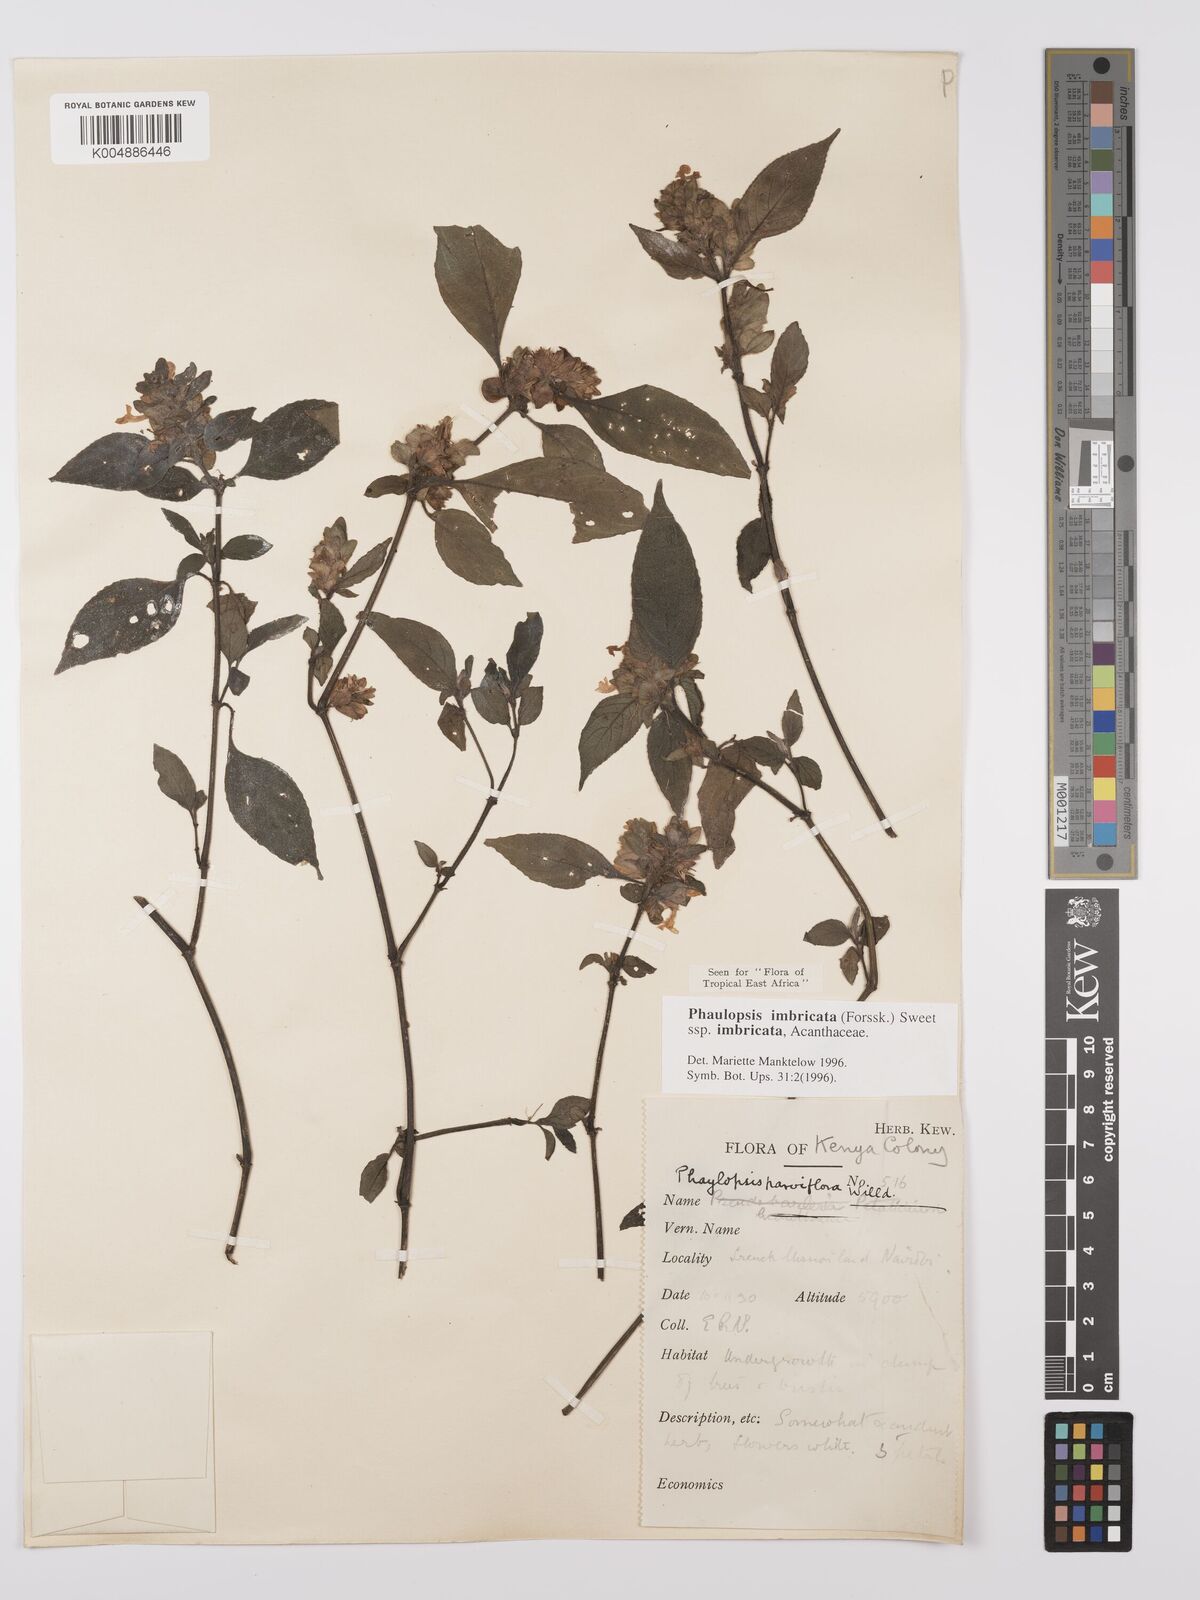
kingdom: Plantae
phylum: Tracheophyta
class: Magnoliopsida
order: Lamiales
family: Acanthaceae
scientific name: Acanthaceae
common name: Acanthaceae
